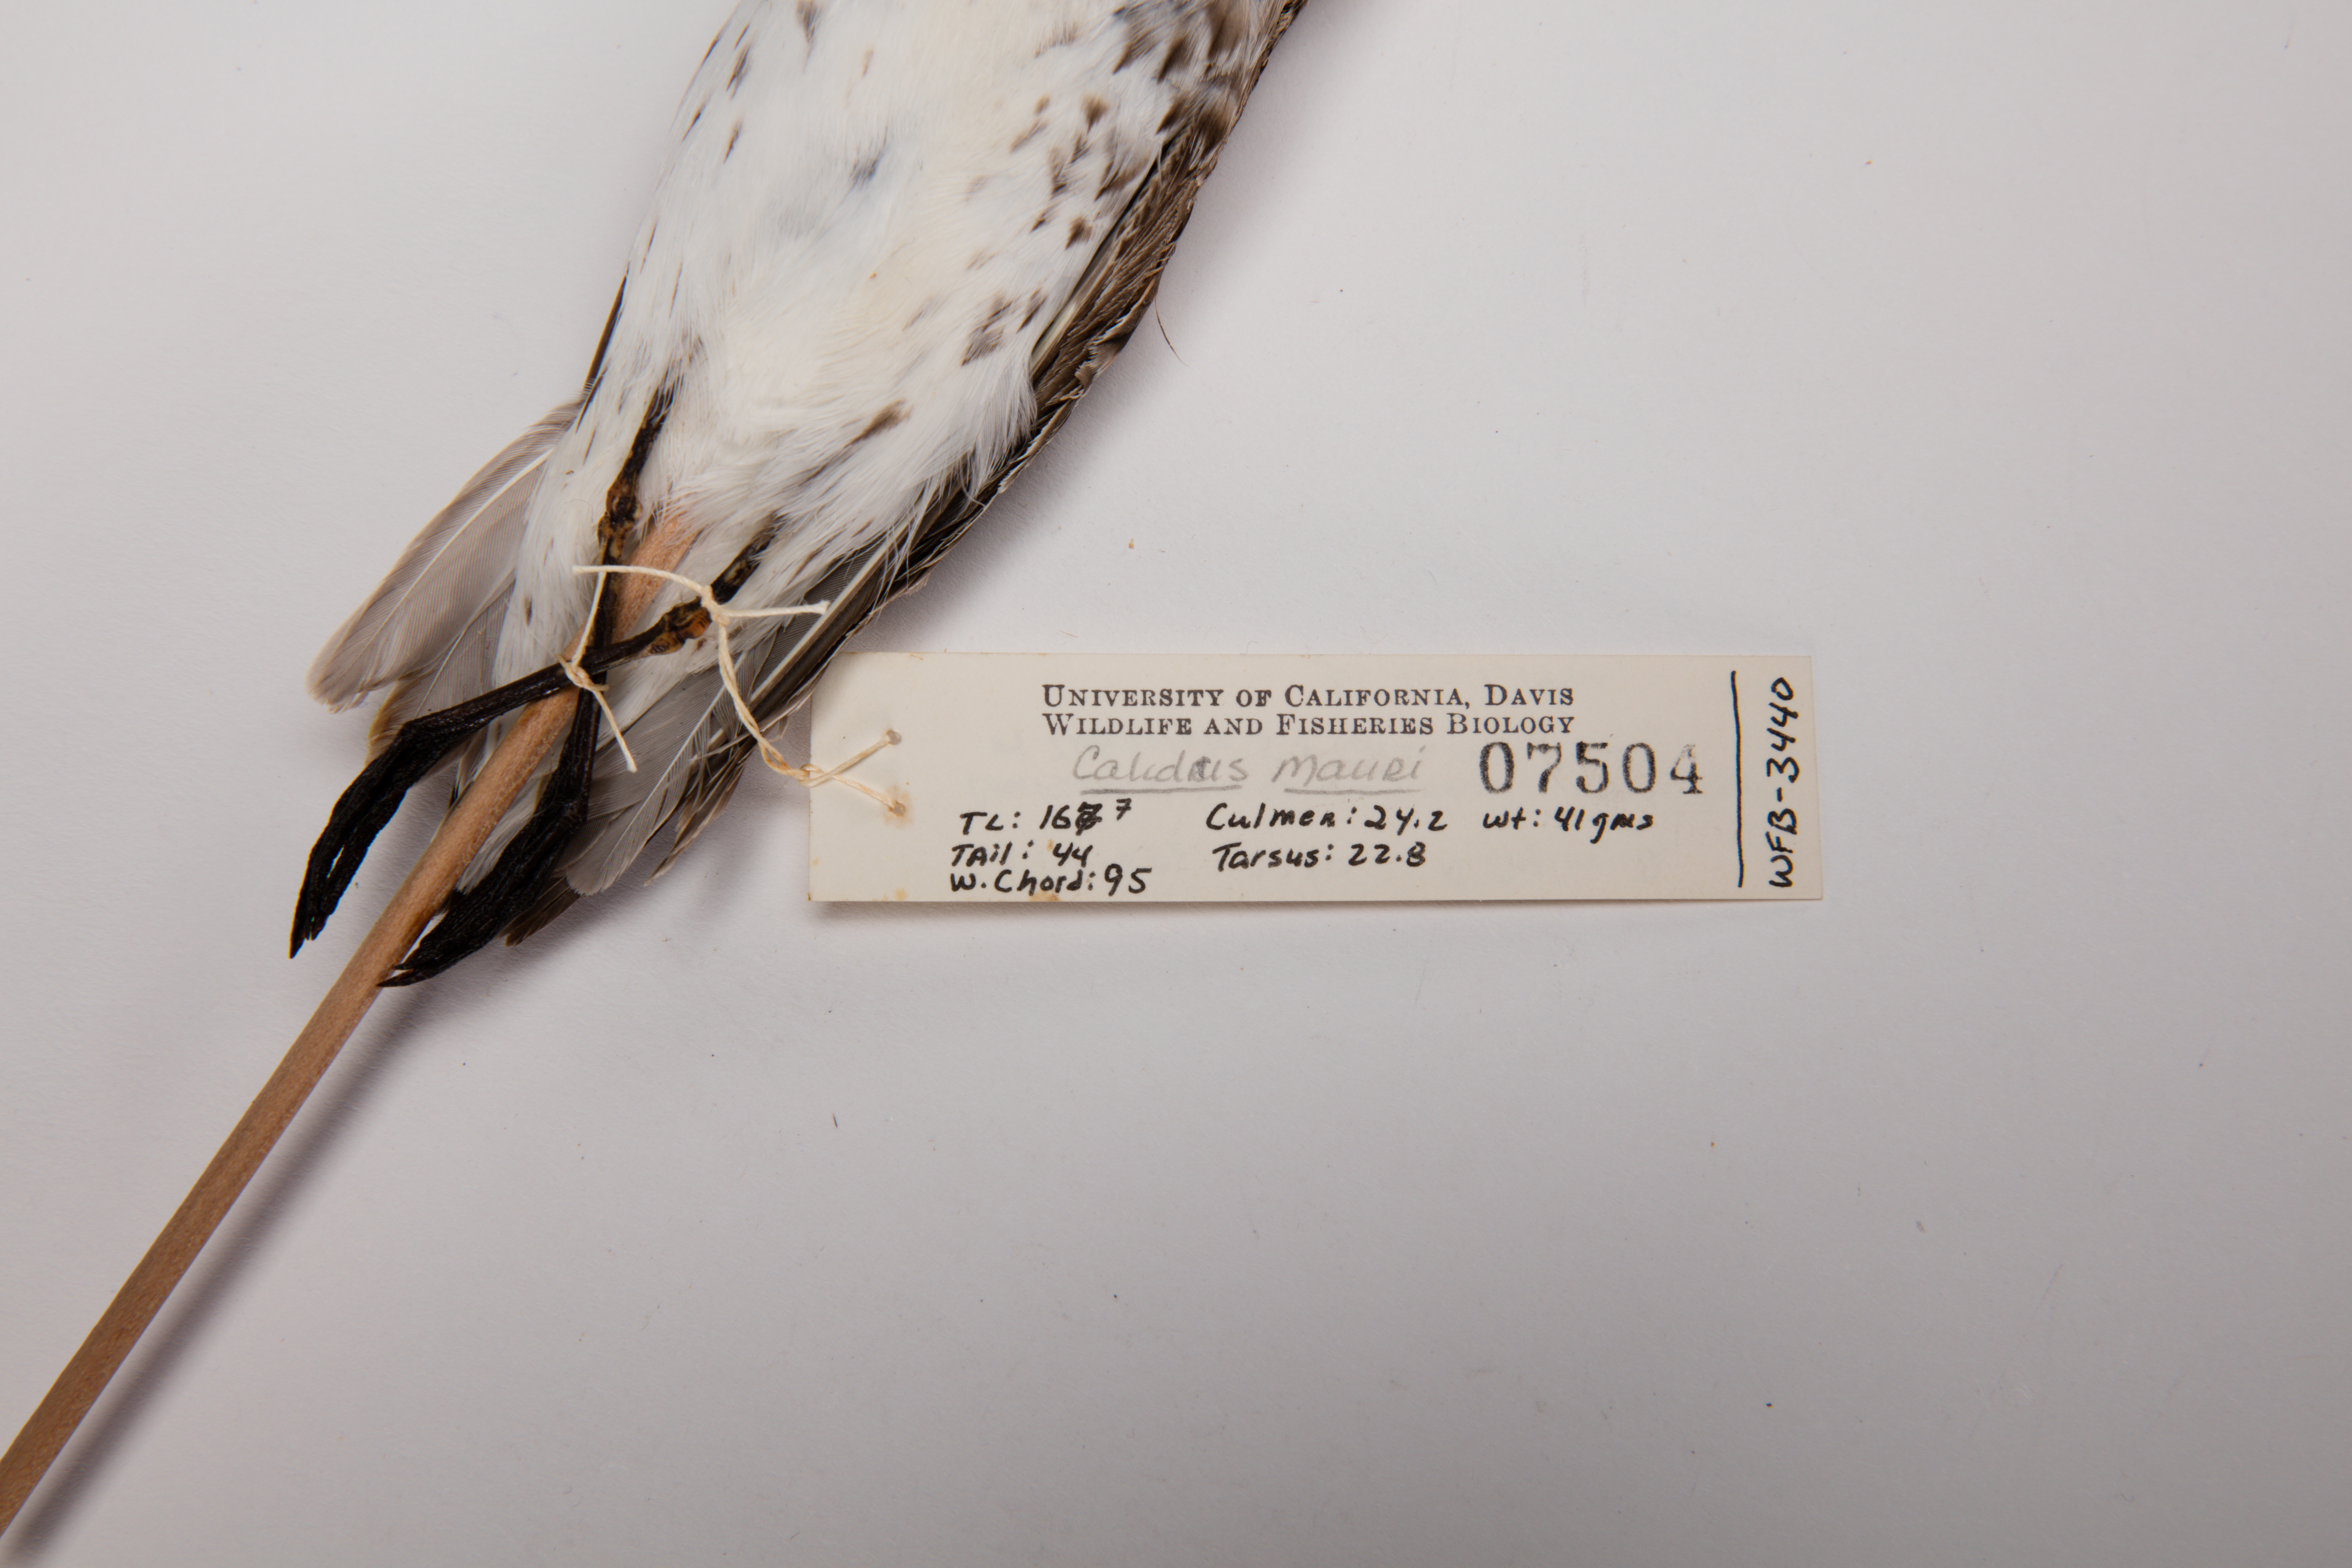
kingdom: Animalia
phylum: Chordata
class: Aves
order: Charadriiformes
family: Scolopacidae
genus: Calidris
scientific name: Calidris mauri
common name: Western sandpiper
